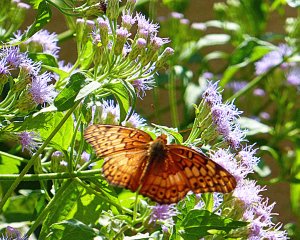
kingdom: Animalia
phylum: Arthropoda
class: Insecta
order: Lepidoptera
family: Nymphalidae
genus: Euptoieta
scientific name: Euptoieta claudia
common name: Variegated Fritillary
